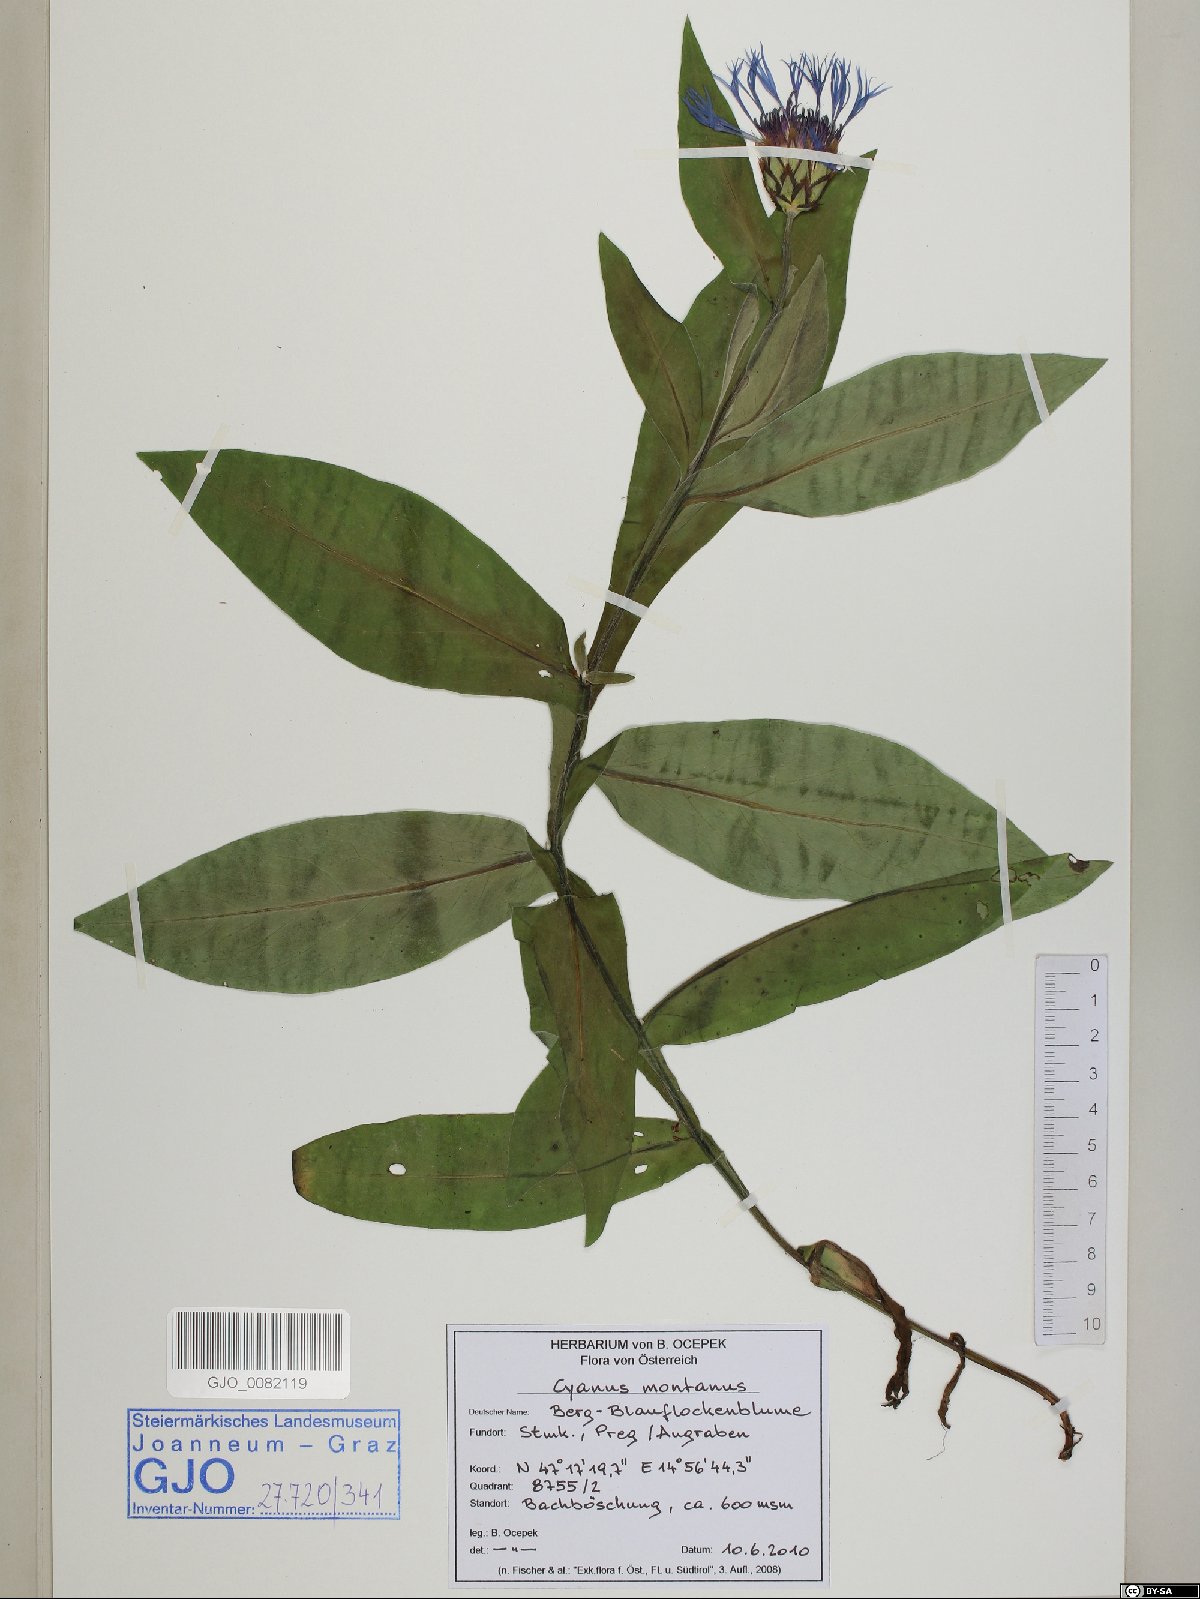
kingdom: Plantae
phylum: Tracheophyta
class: Magnoliopsida
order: Asterales
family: Asteraceae
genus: Centaurea
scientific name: Centaurea montana
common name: Perennial cornflower
